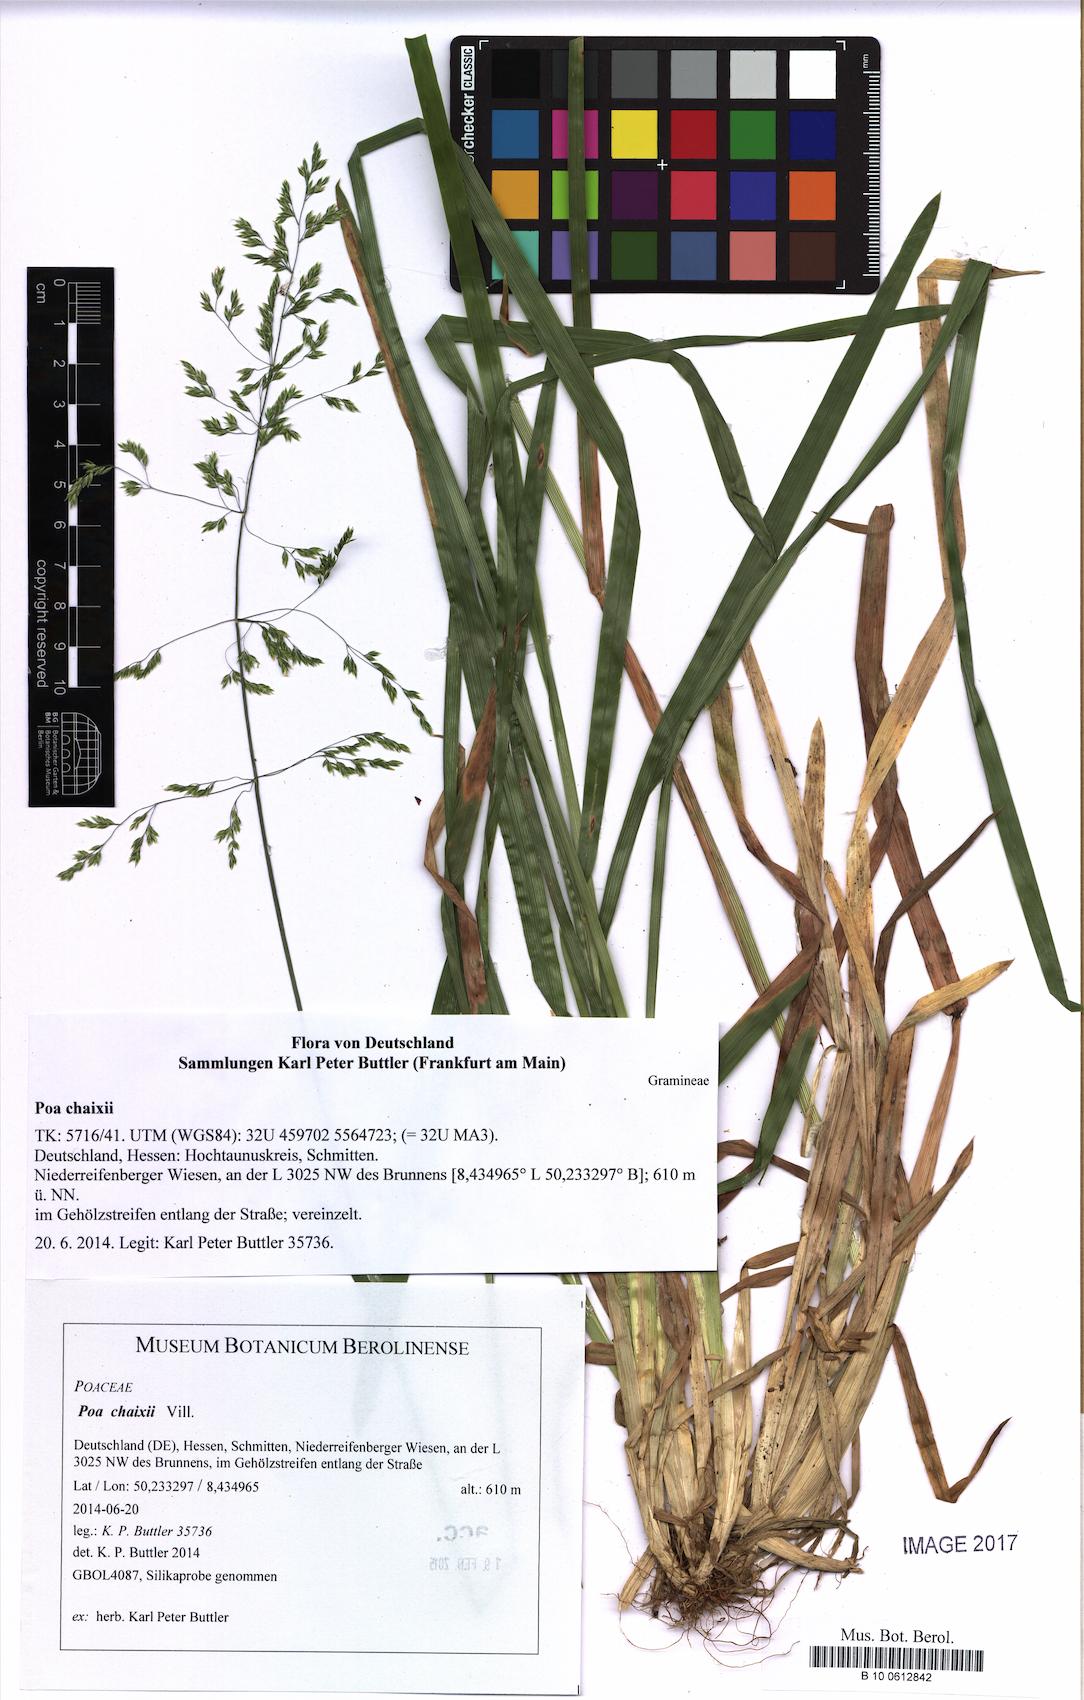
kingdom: Plantae
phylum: Tracheophyta
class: Liliopsida
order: Poales
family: Poaceae
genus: Poa
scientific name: Poa chaixii
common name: Broad-leaved meadow-grass
